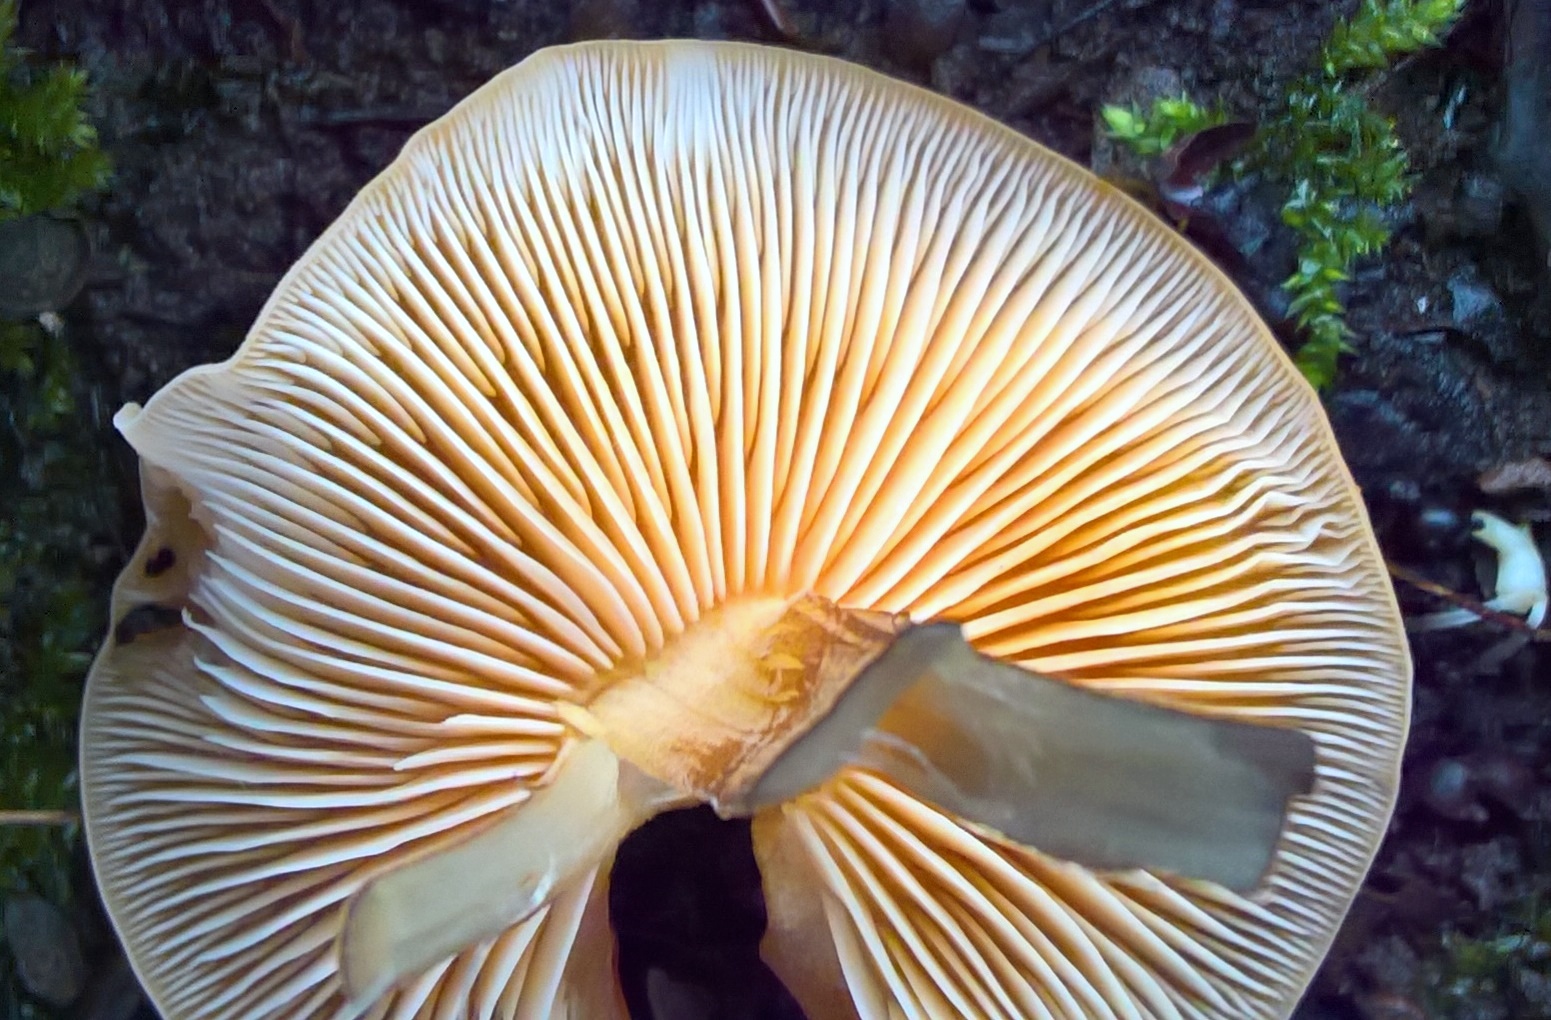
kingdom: Fungi
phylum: Basidiomycota
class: Agaricomycetes
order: Agaricales
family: Physalacriaceae
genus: Flammulina
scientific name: Flammulina velutipes
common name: gul fløjlsfod
